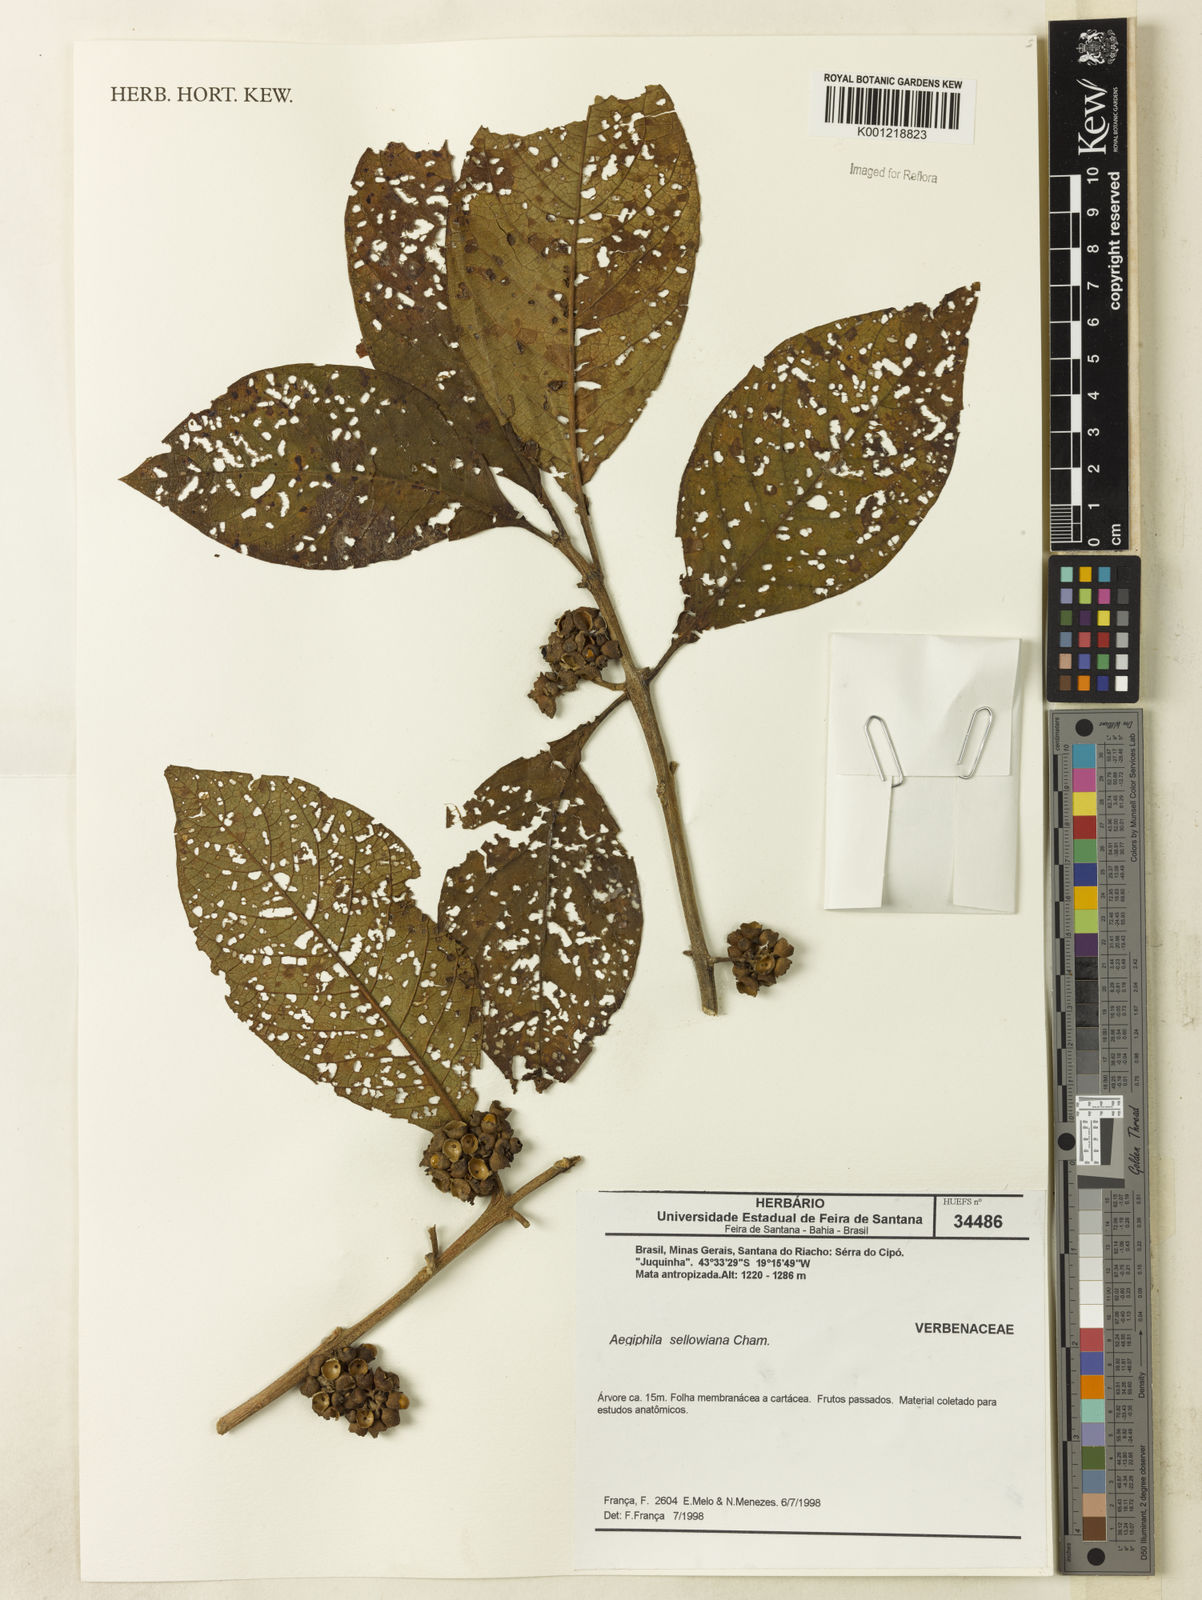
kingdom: Plantae
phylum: Tracheophyta
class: Magnoliopsida
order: Lamiales
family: Lamiaceae
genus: Aegiphila
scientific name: Aegiphila verticillata
